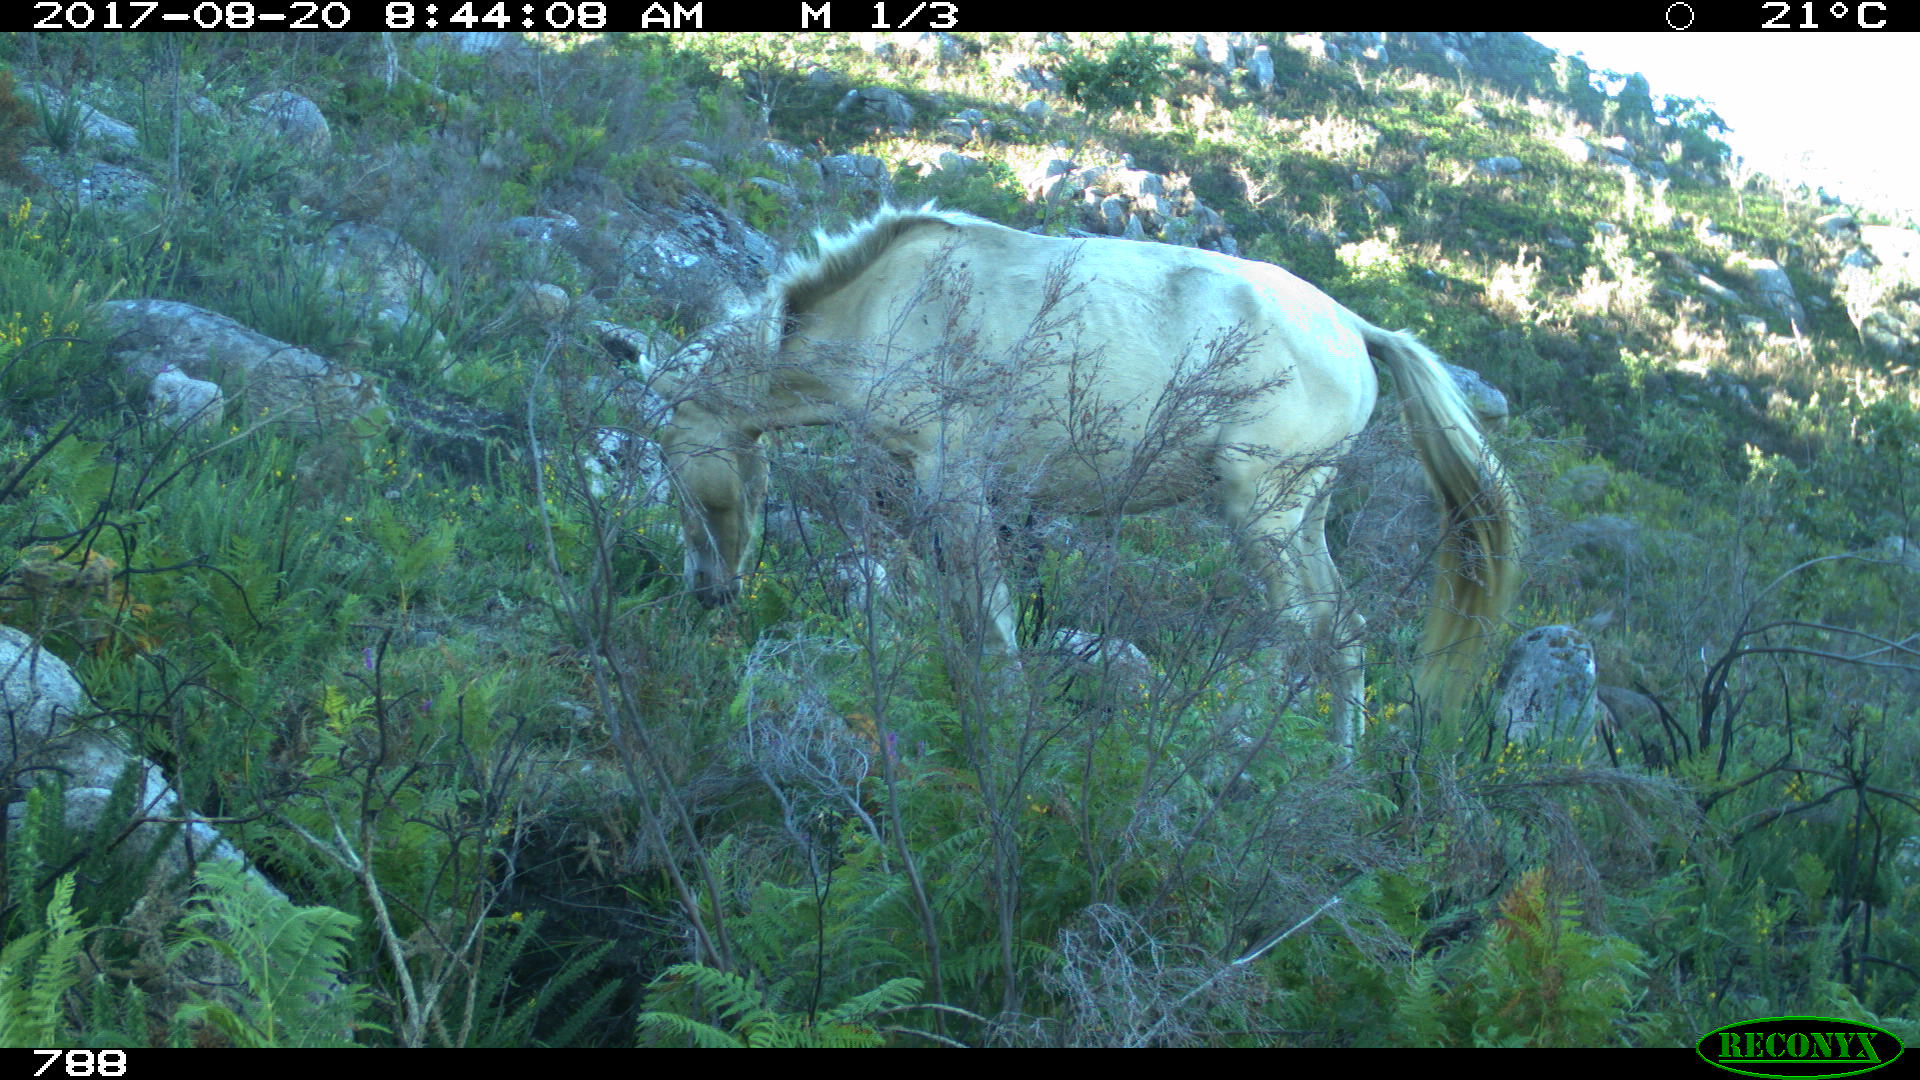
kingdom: Animalia
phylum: Chordata
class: Mammalia
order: Perissodactyla
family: Equidae
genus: Equus
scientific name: Equus caballus
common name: Horse
